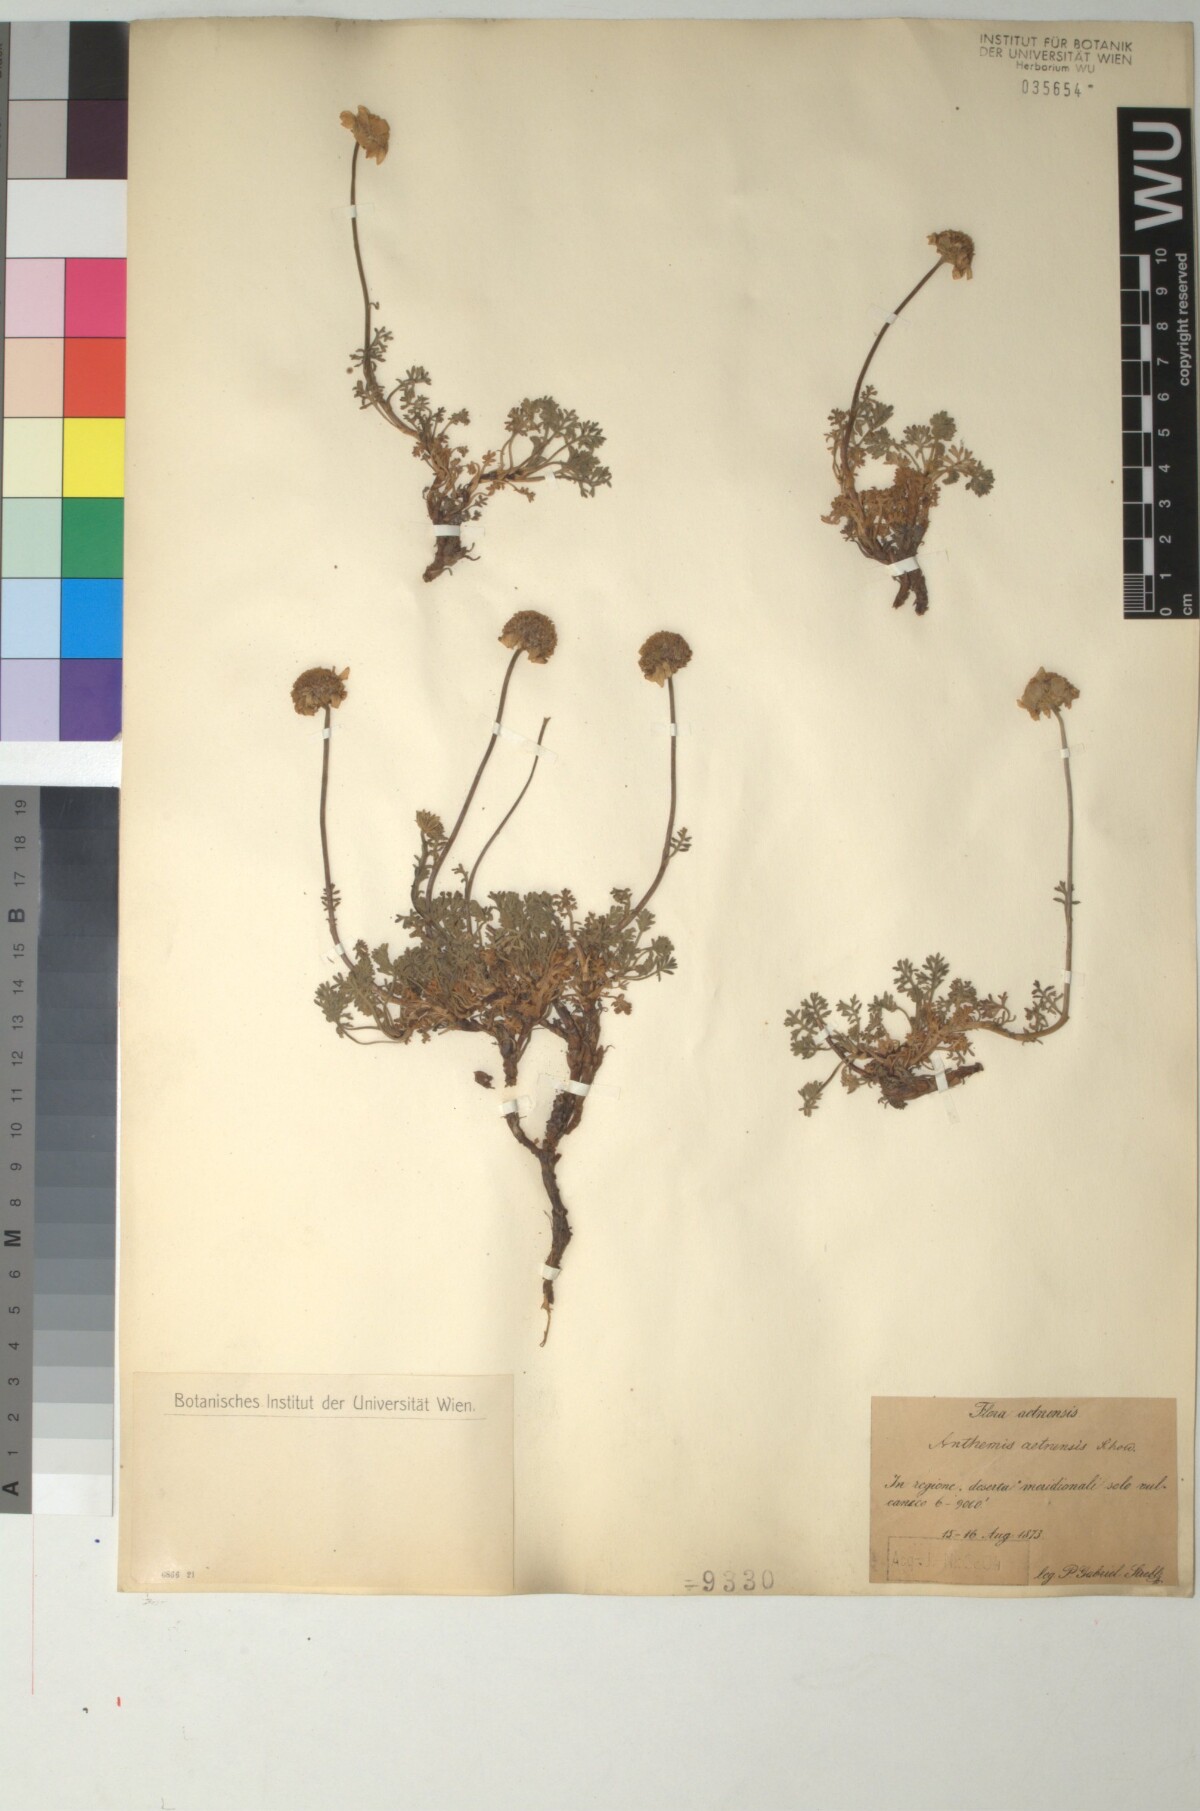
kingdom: Plantae
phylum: Tracheophyta
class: Magnoliopsida
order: Asterales
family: Asteraceae
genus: Anthemis
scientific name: Anthemis aetnensis
